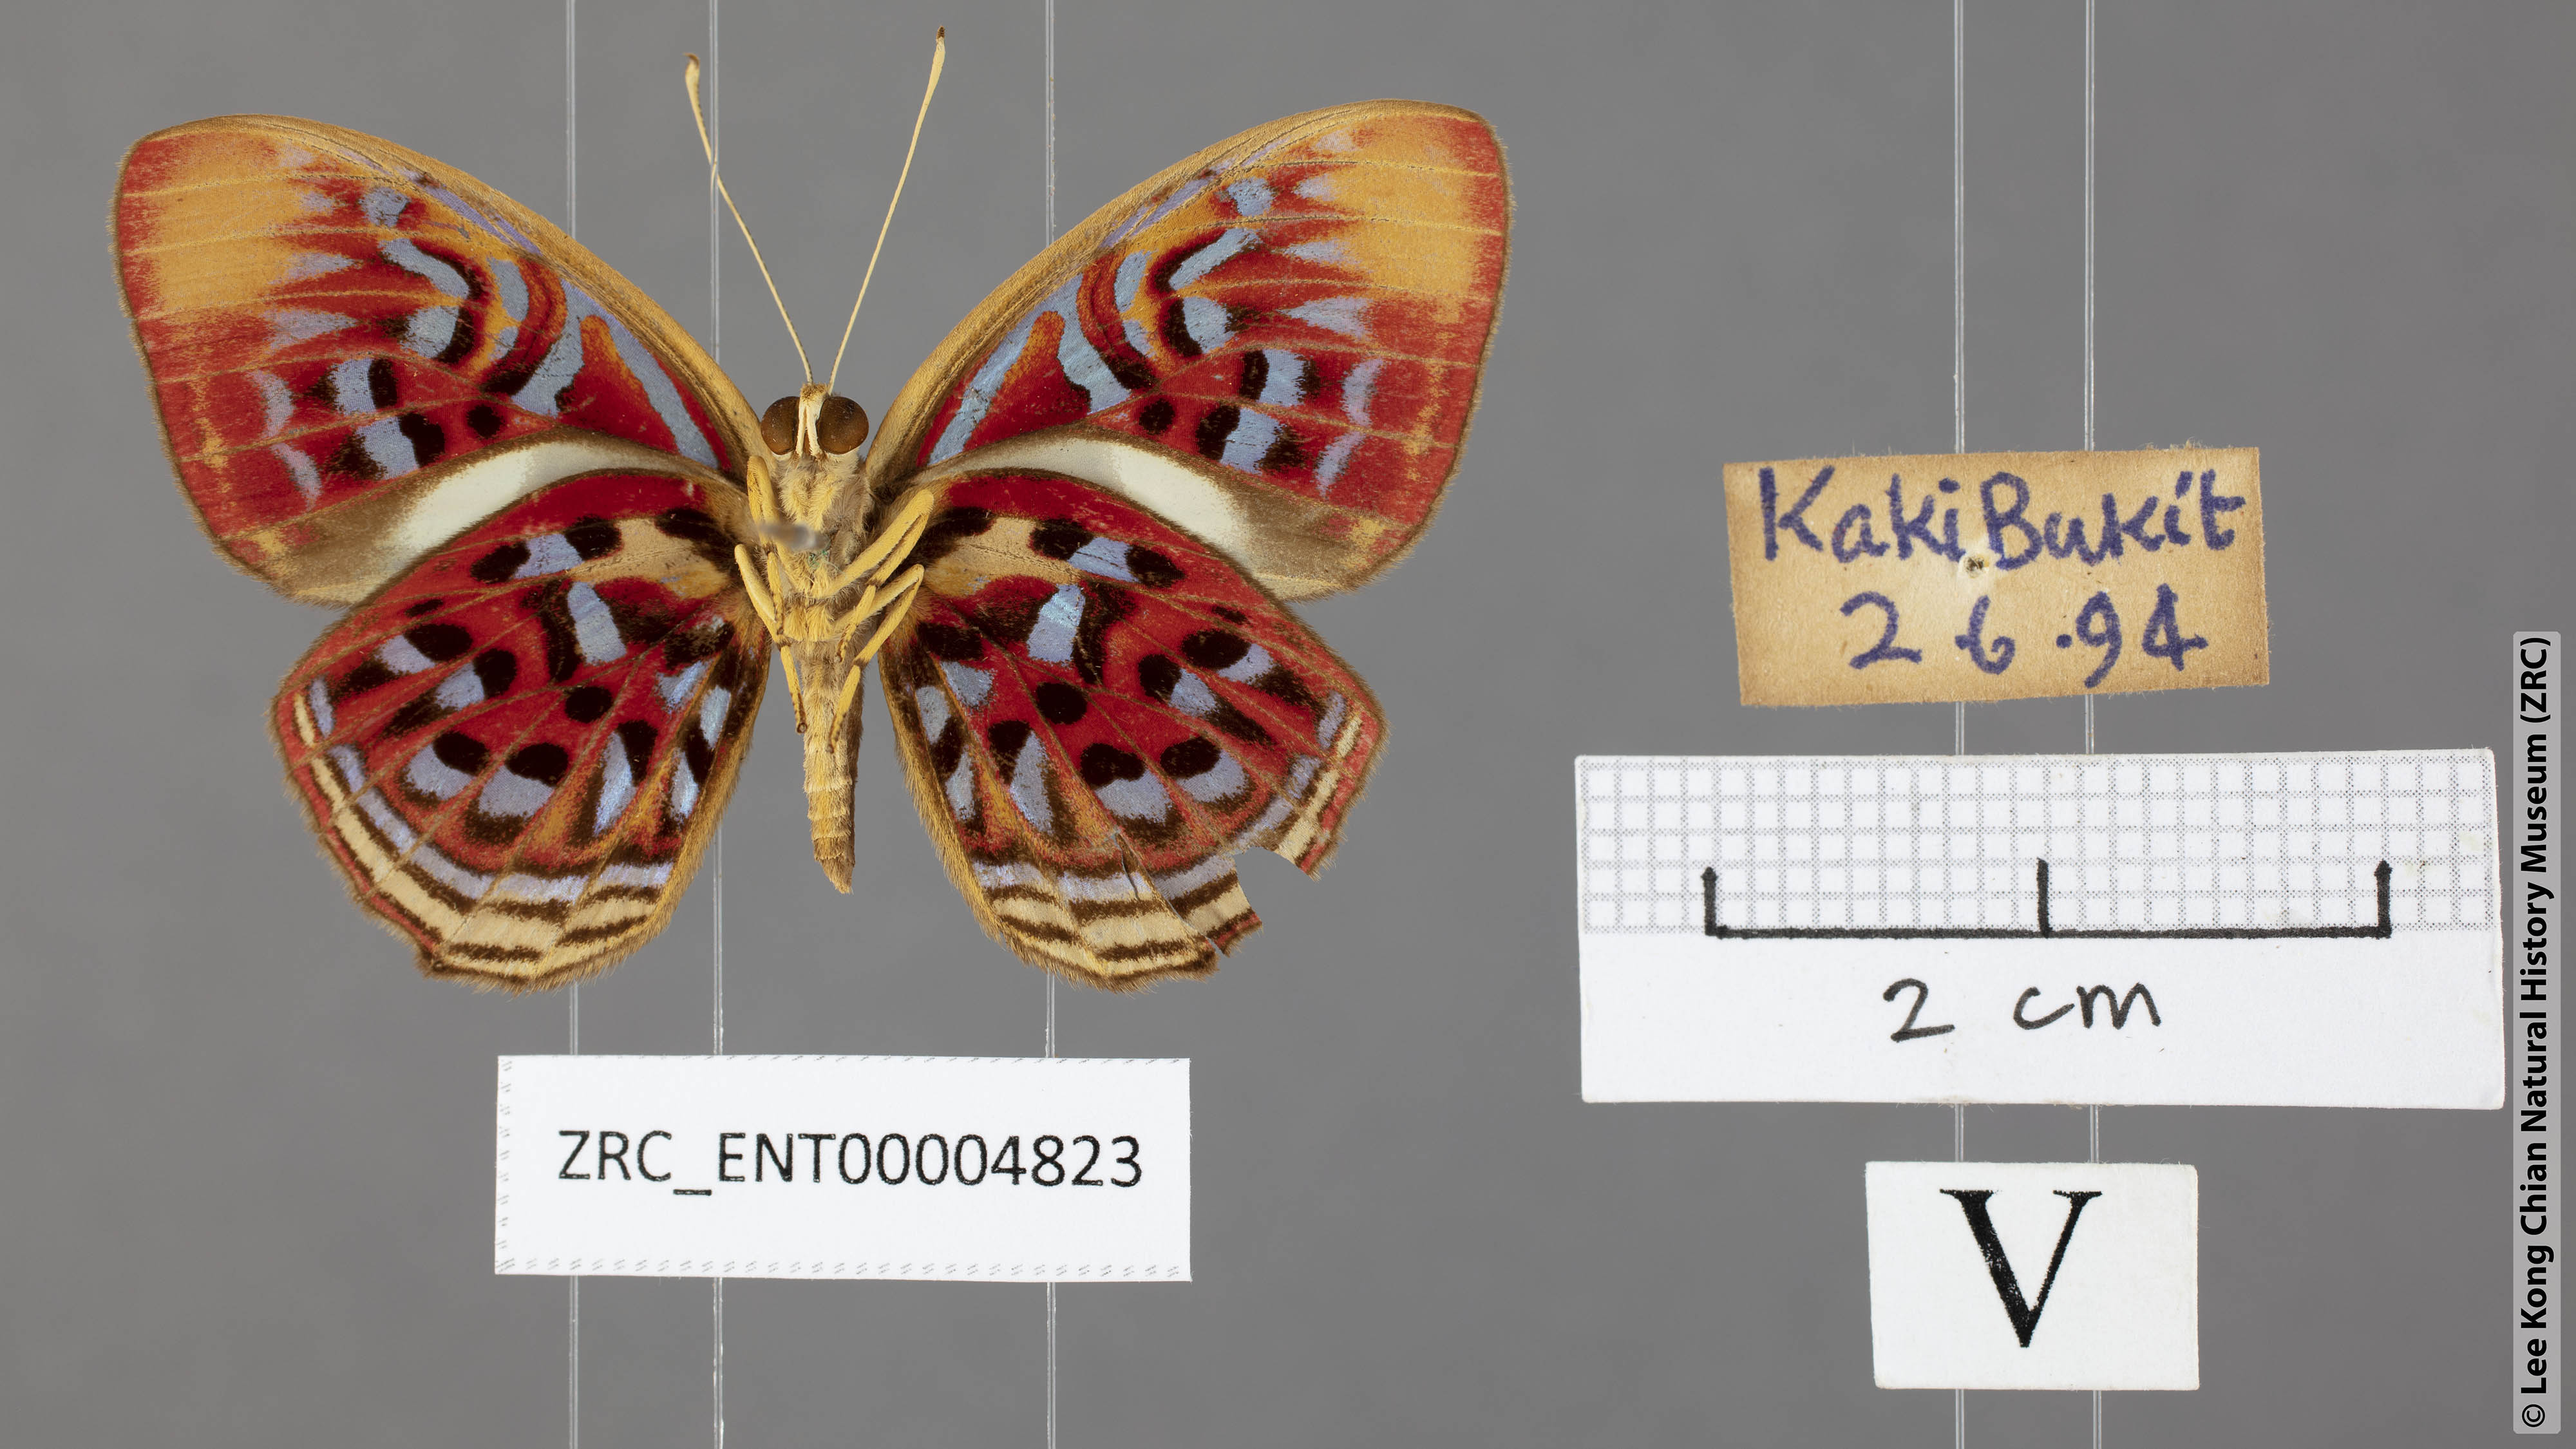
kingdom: Animalia
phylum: Arthropoda
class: Insecta
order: Lepidoptera
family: Lycaenidae
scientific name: Lycaenidae
